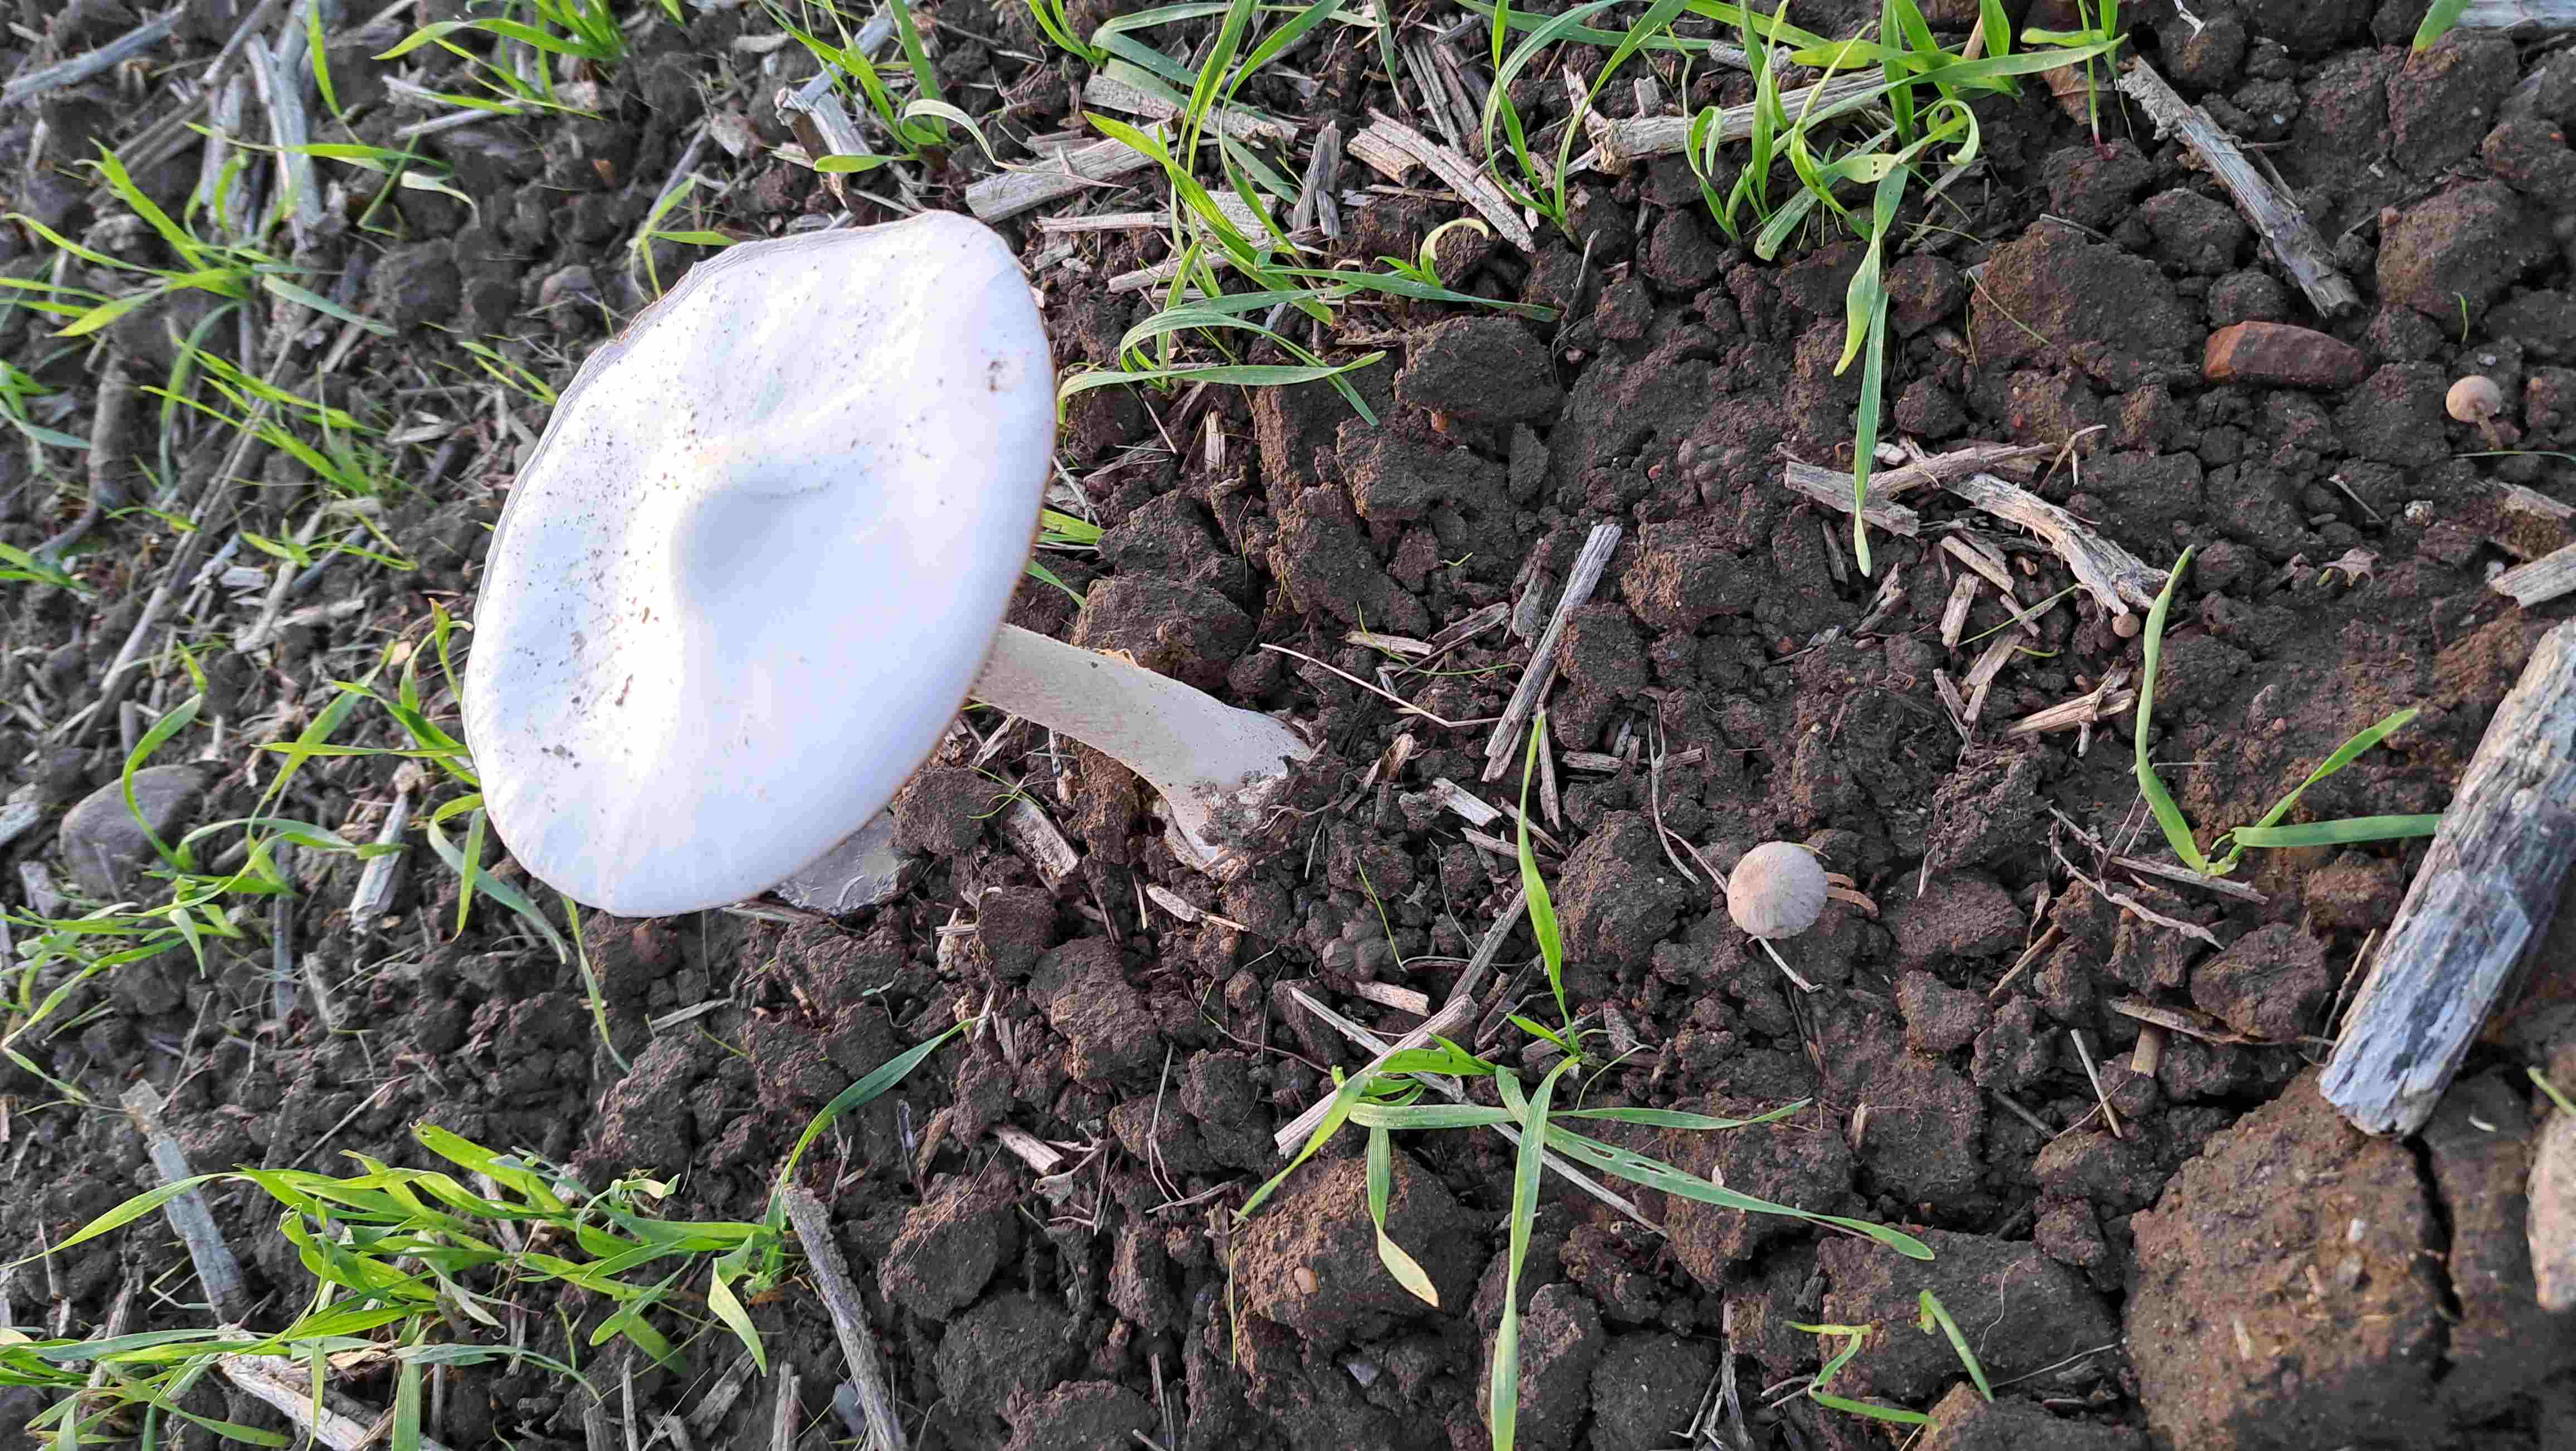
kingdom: Fungi
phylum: Basidiomycota
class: Agaricomycetes
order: Agaricales
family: Pluteaceae
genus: Volvopluteus
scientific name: Volvopluteus gloiocephalus
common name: høj posesvamp
